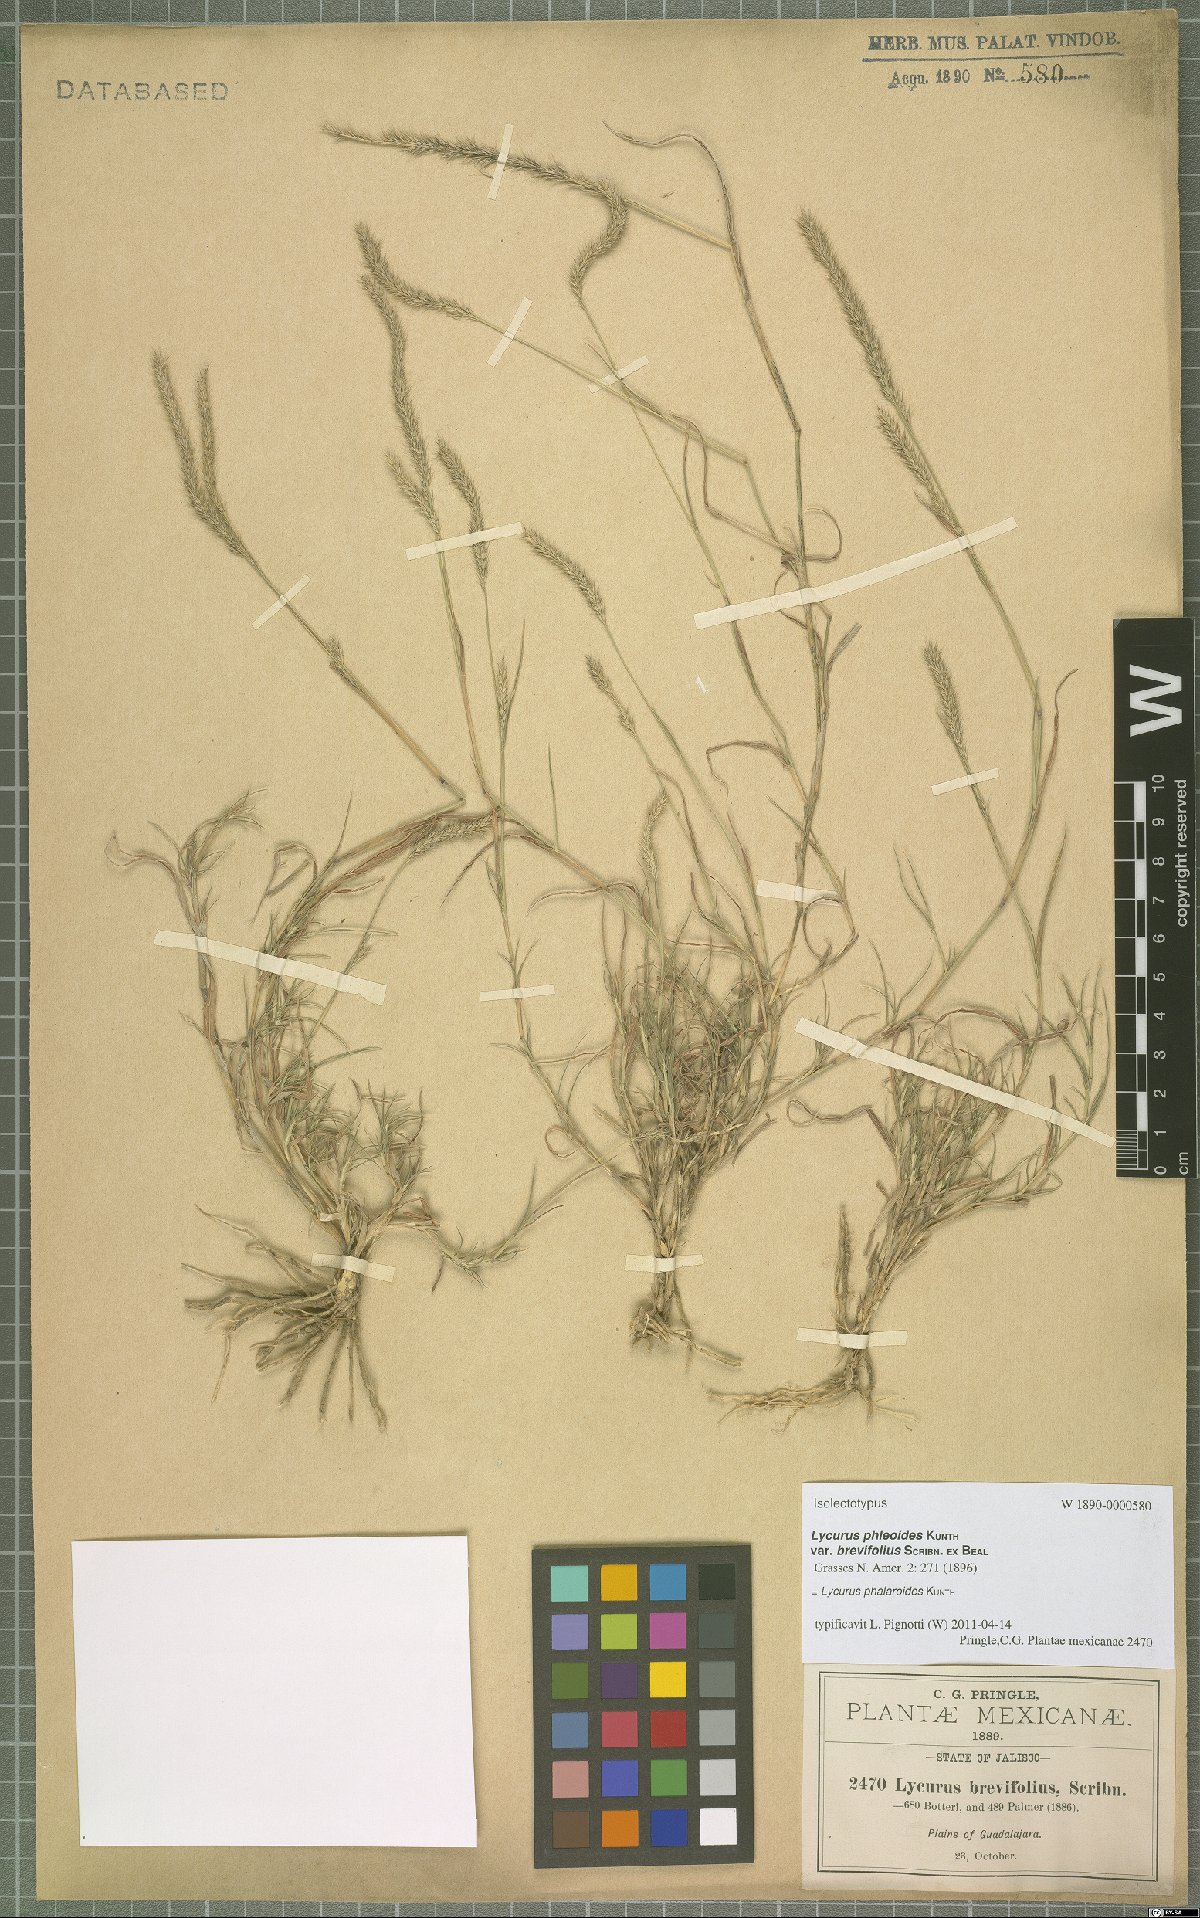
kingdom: Plantae
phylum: Tracheophyta
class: Liliopsida
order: Poales
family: Poaceae
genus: Muhlenbergia
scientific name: Muhlenbergia phalaroides
